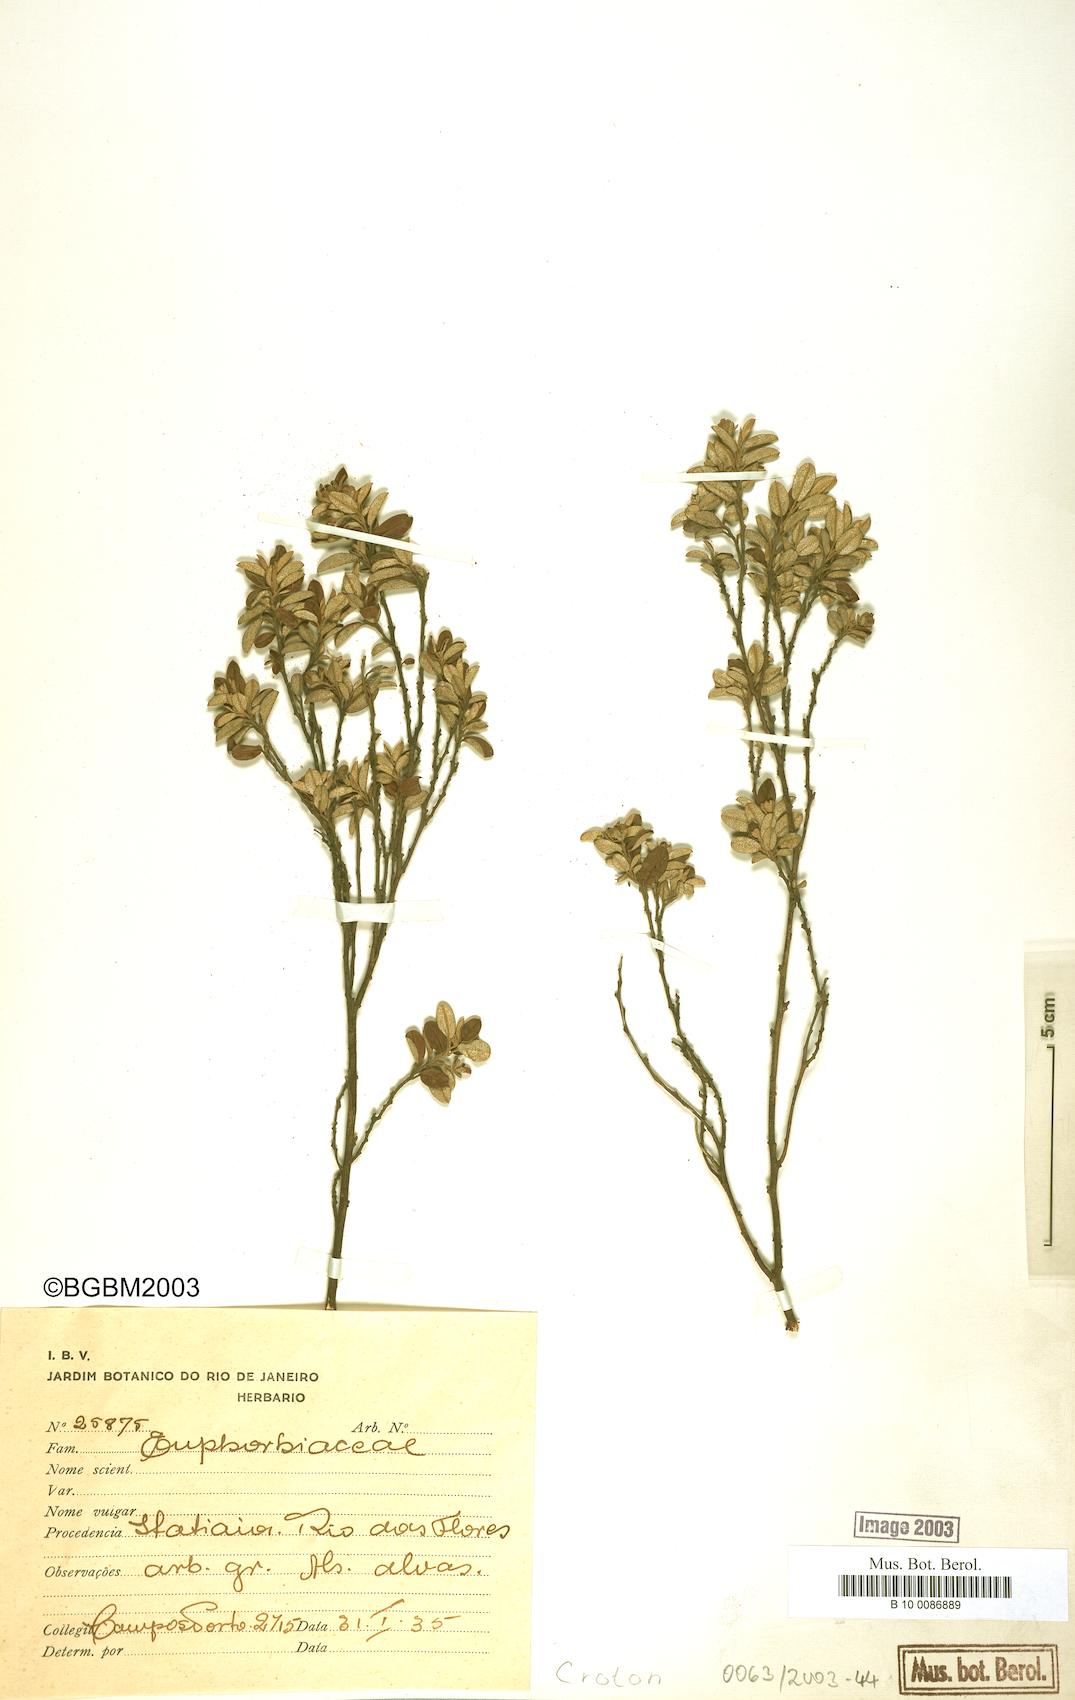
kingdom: Plantae
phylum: Tracheophyta
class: Magnoliopsida
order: Malpighiales
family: Euphorbiaceae
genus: Croton
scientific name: Croton
